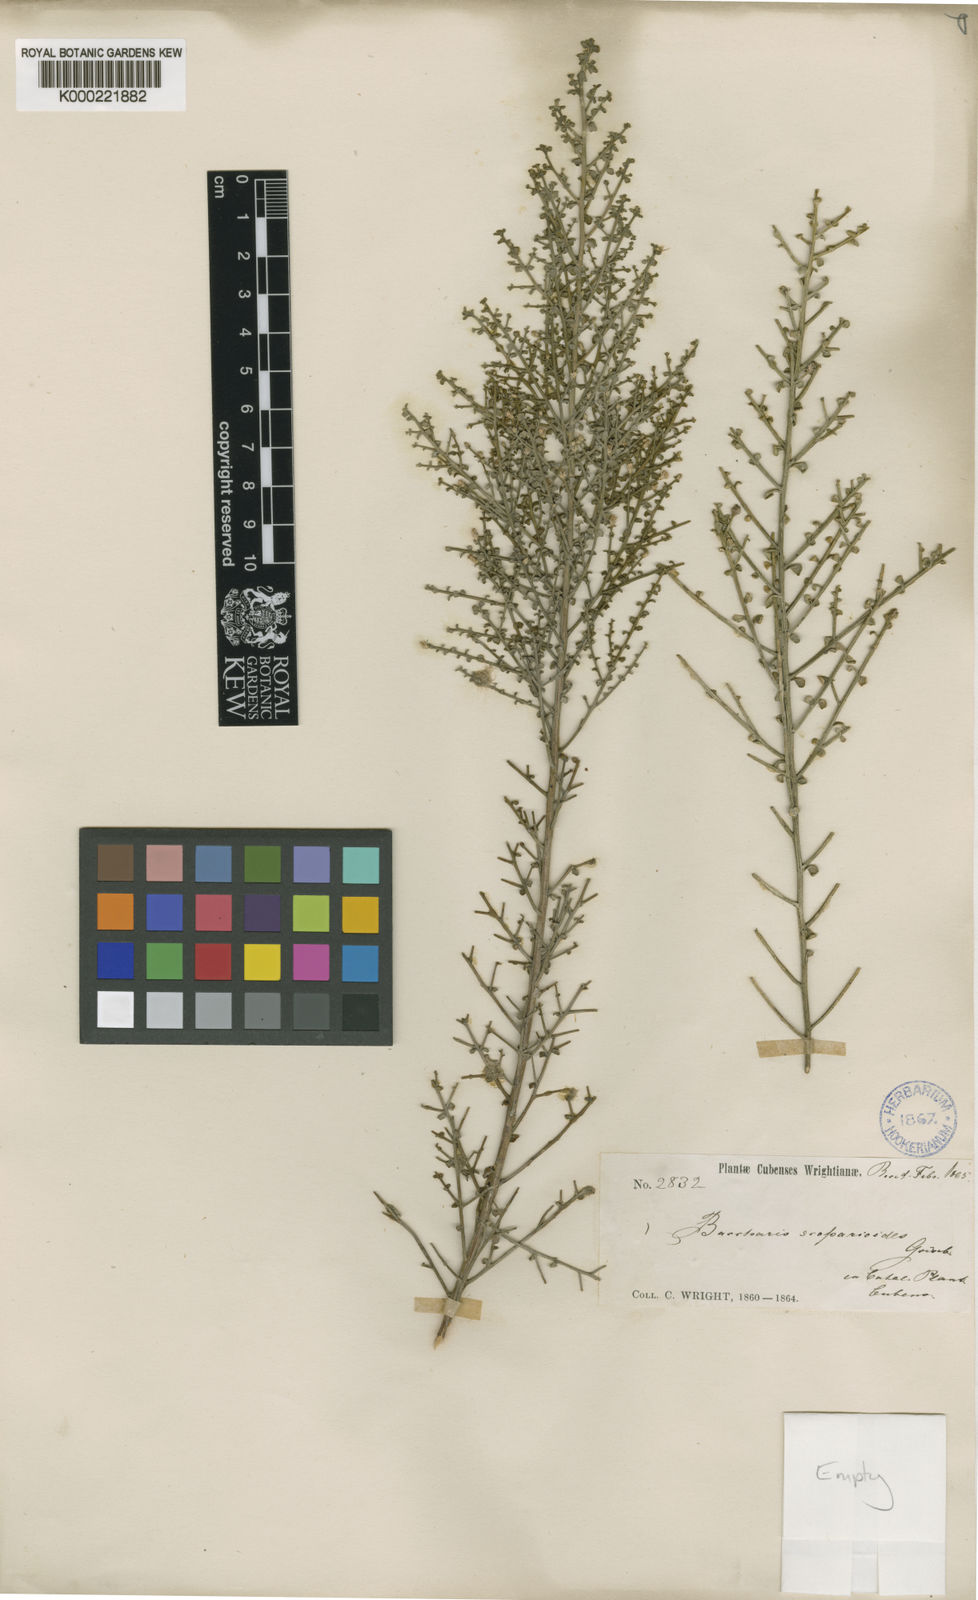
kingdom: Plantae
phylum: Tracheophyta
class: Magnoliopsida
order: Asterales
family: Asteraceae
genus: Baccharis
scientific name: Baccharis scoparioides
